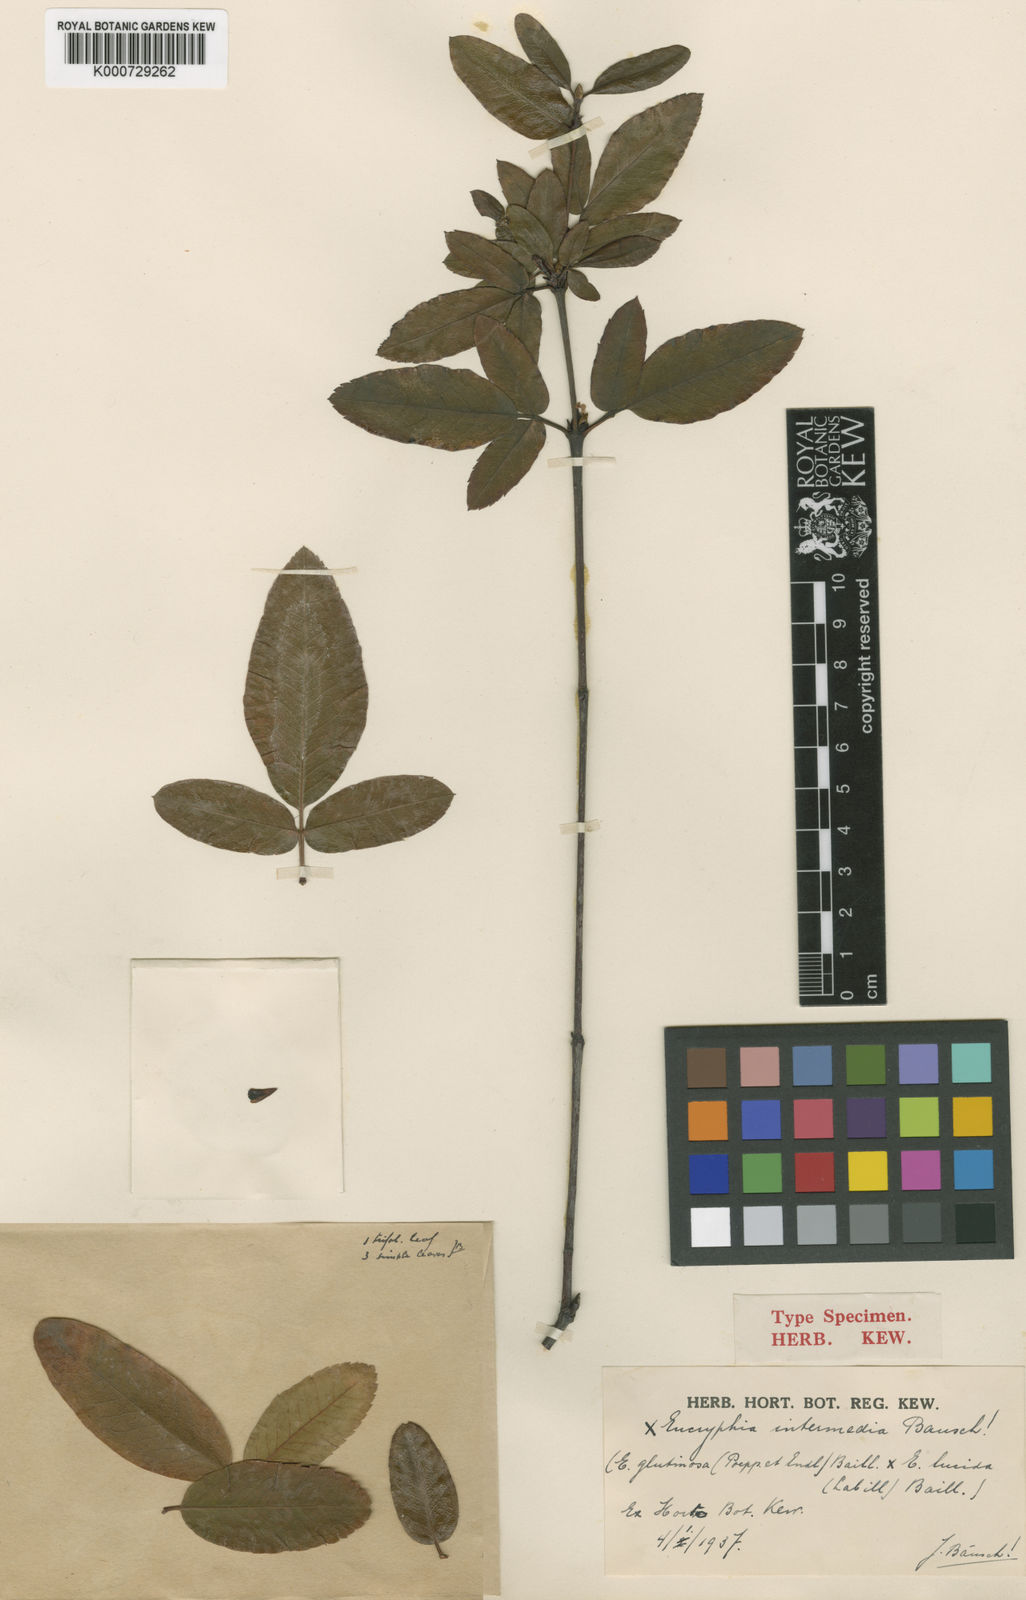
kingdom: Plantae
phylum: Tracheophyta
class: Magnoliopsida
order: Oxalidales
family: Cunoniaceae
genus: Eucryphia
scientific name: Eucryphia intermedia
